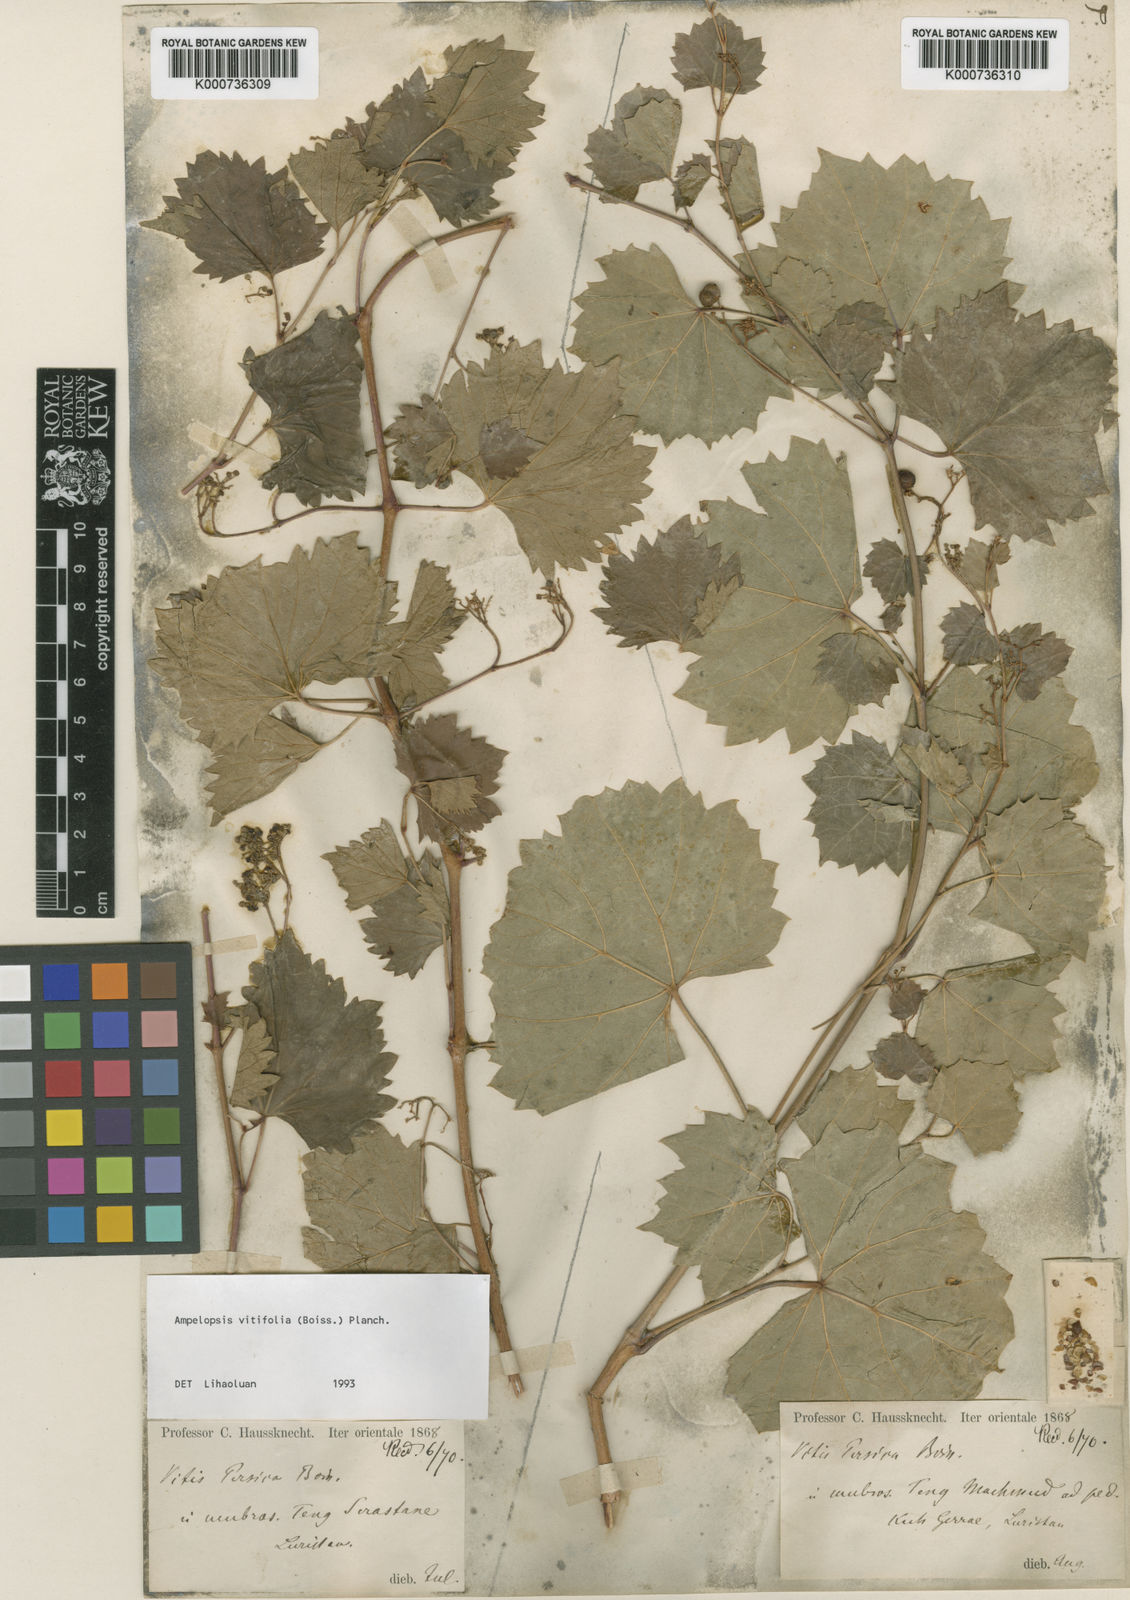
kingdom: Plantae
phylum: Tracheophyta
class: Magnoliopsida
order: Vitales
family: Vitaceae
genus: Ampelopsis
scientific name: Ampelopsis vitifolia
